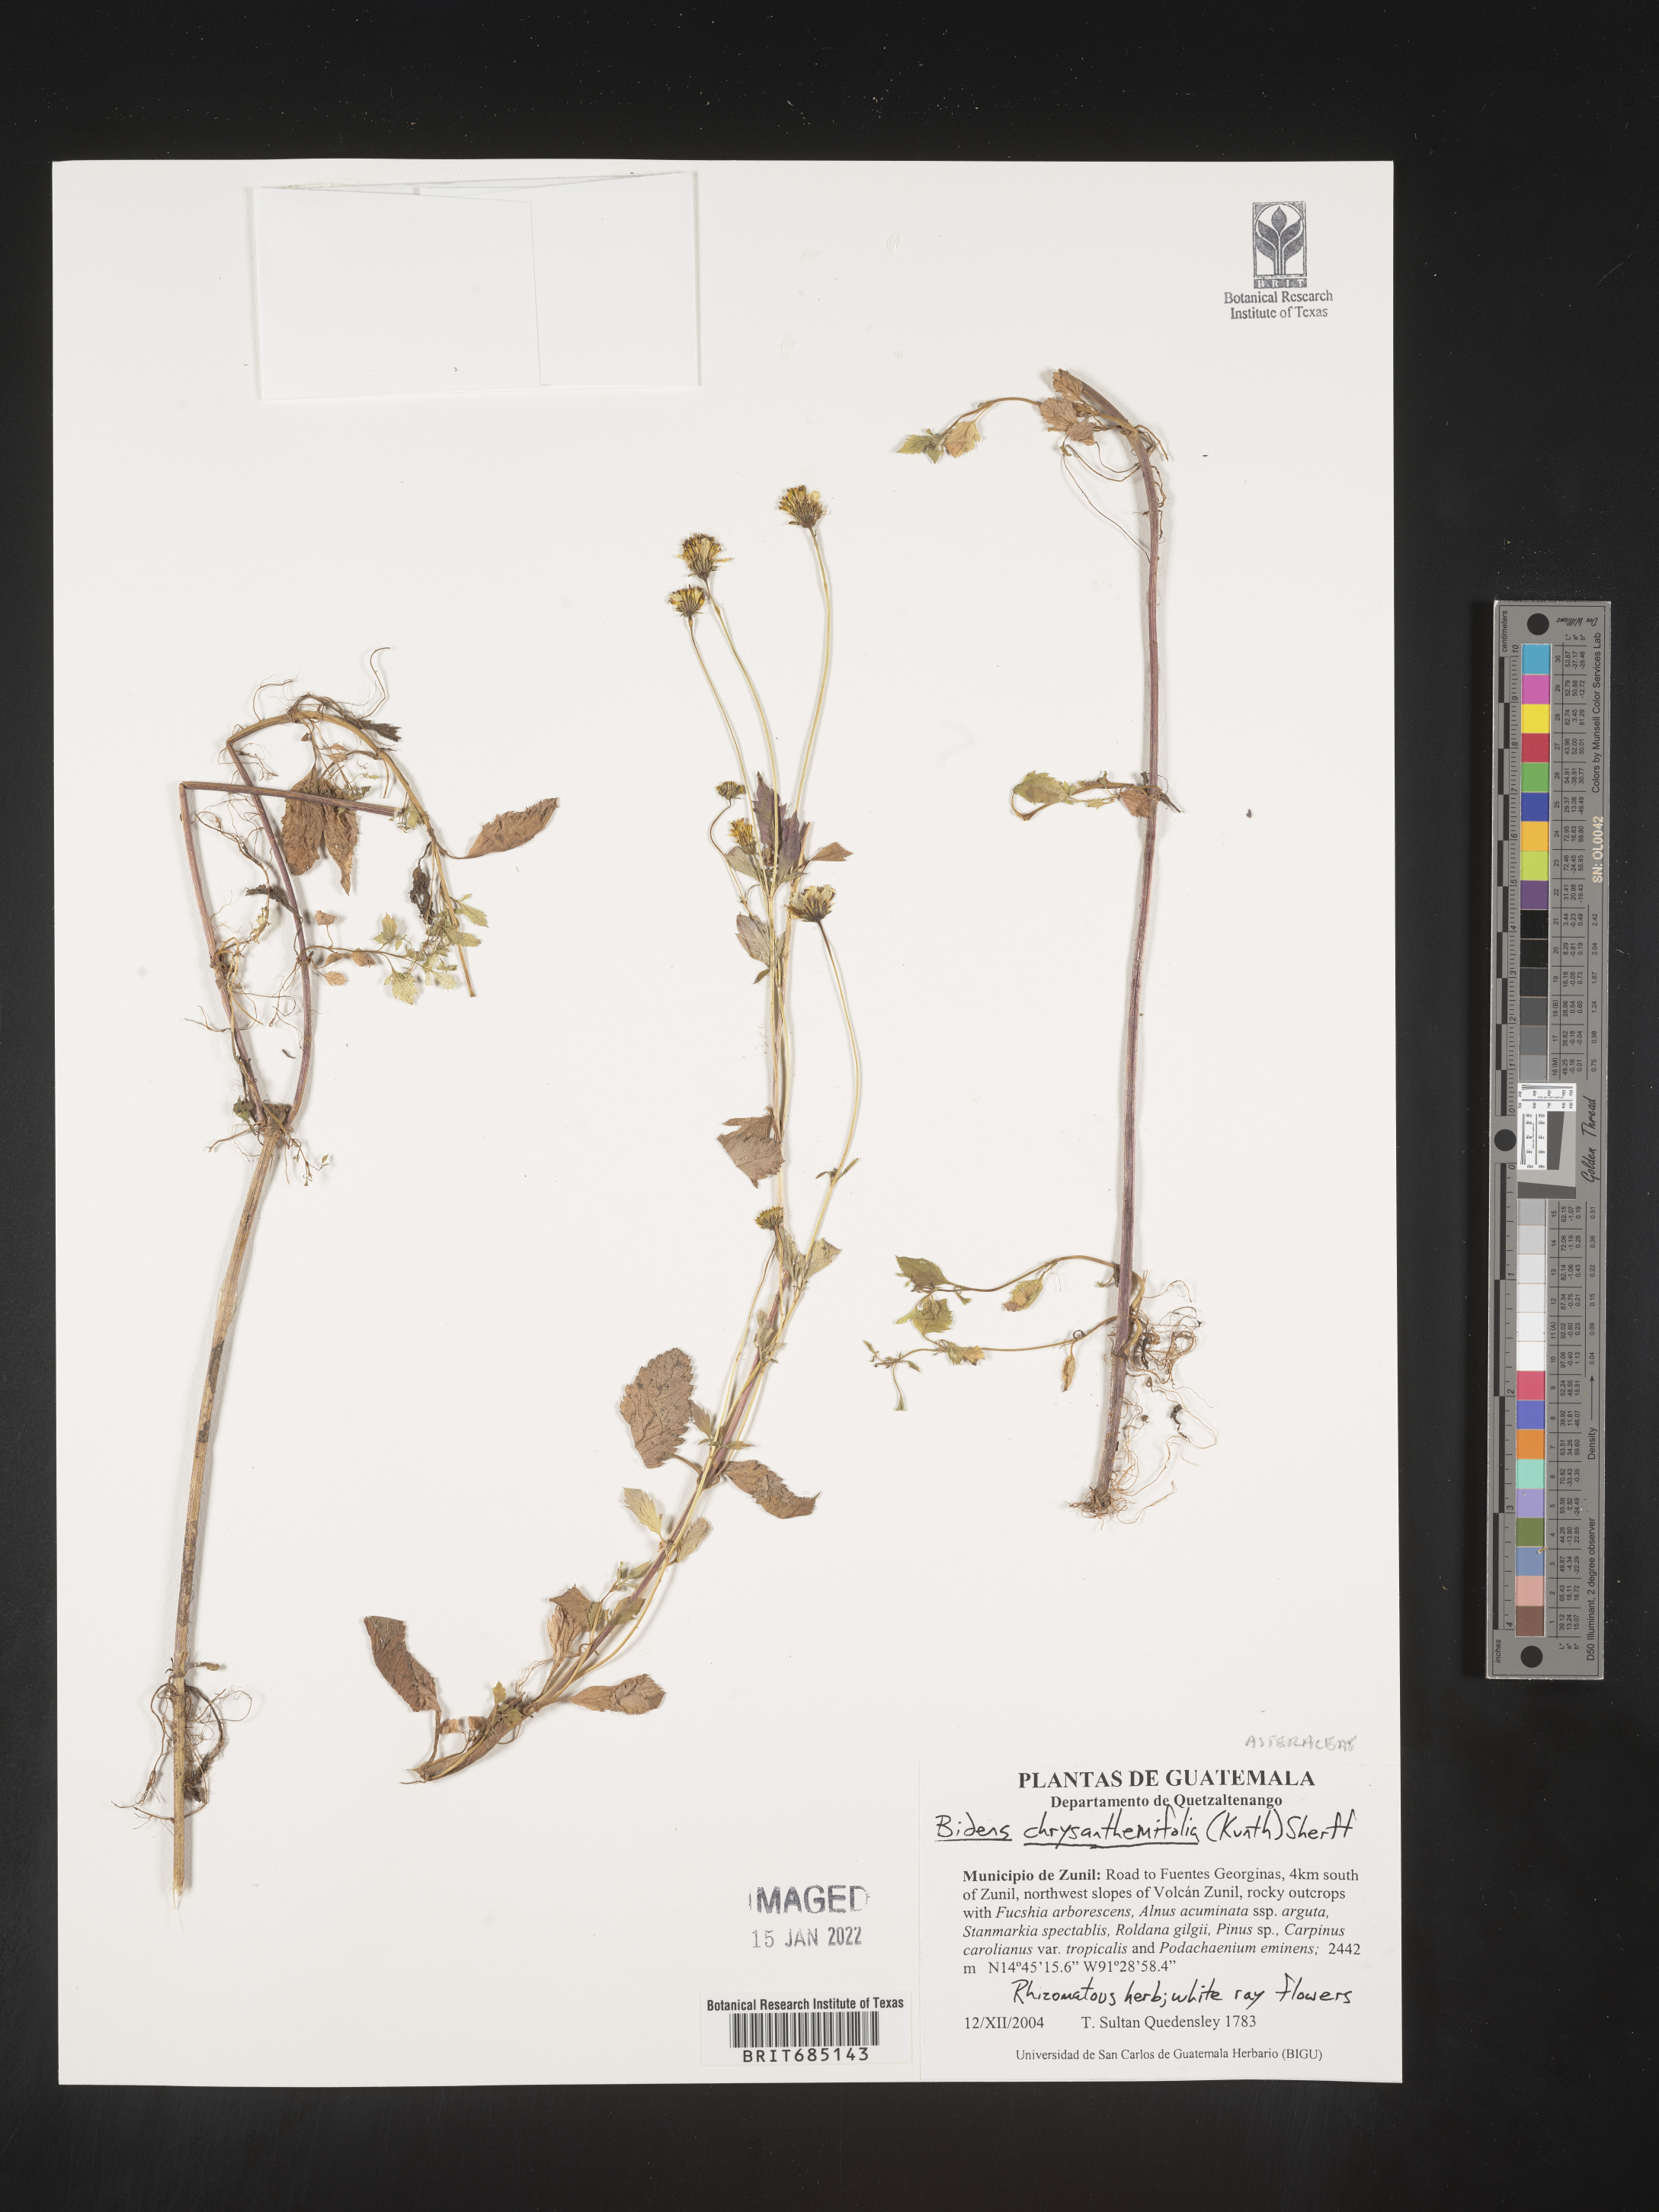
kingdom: Plantae
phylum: Tracheophyta
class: Magnoliopsida
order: Asterales
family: Asteraceae
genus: Bidens
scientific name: Bidens
